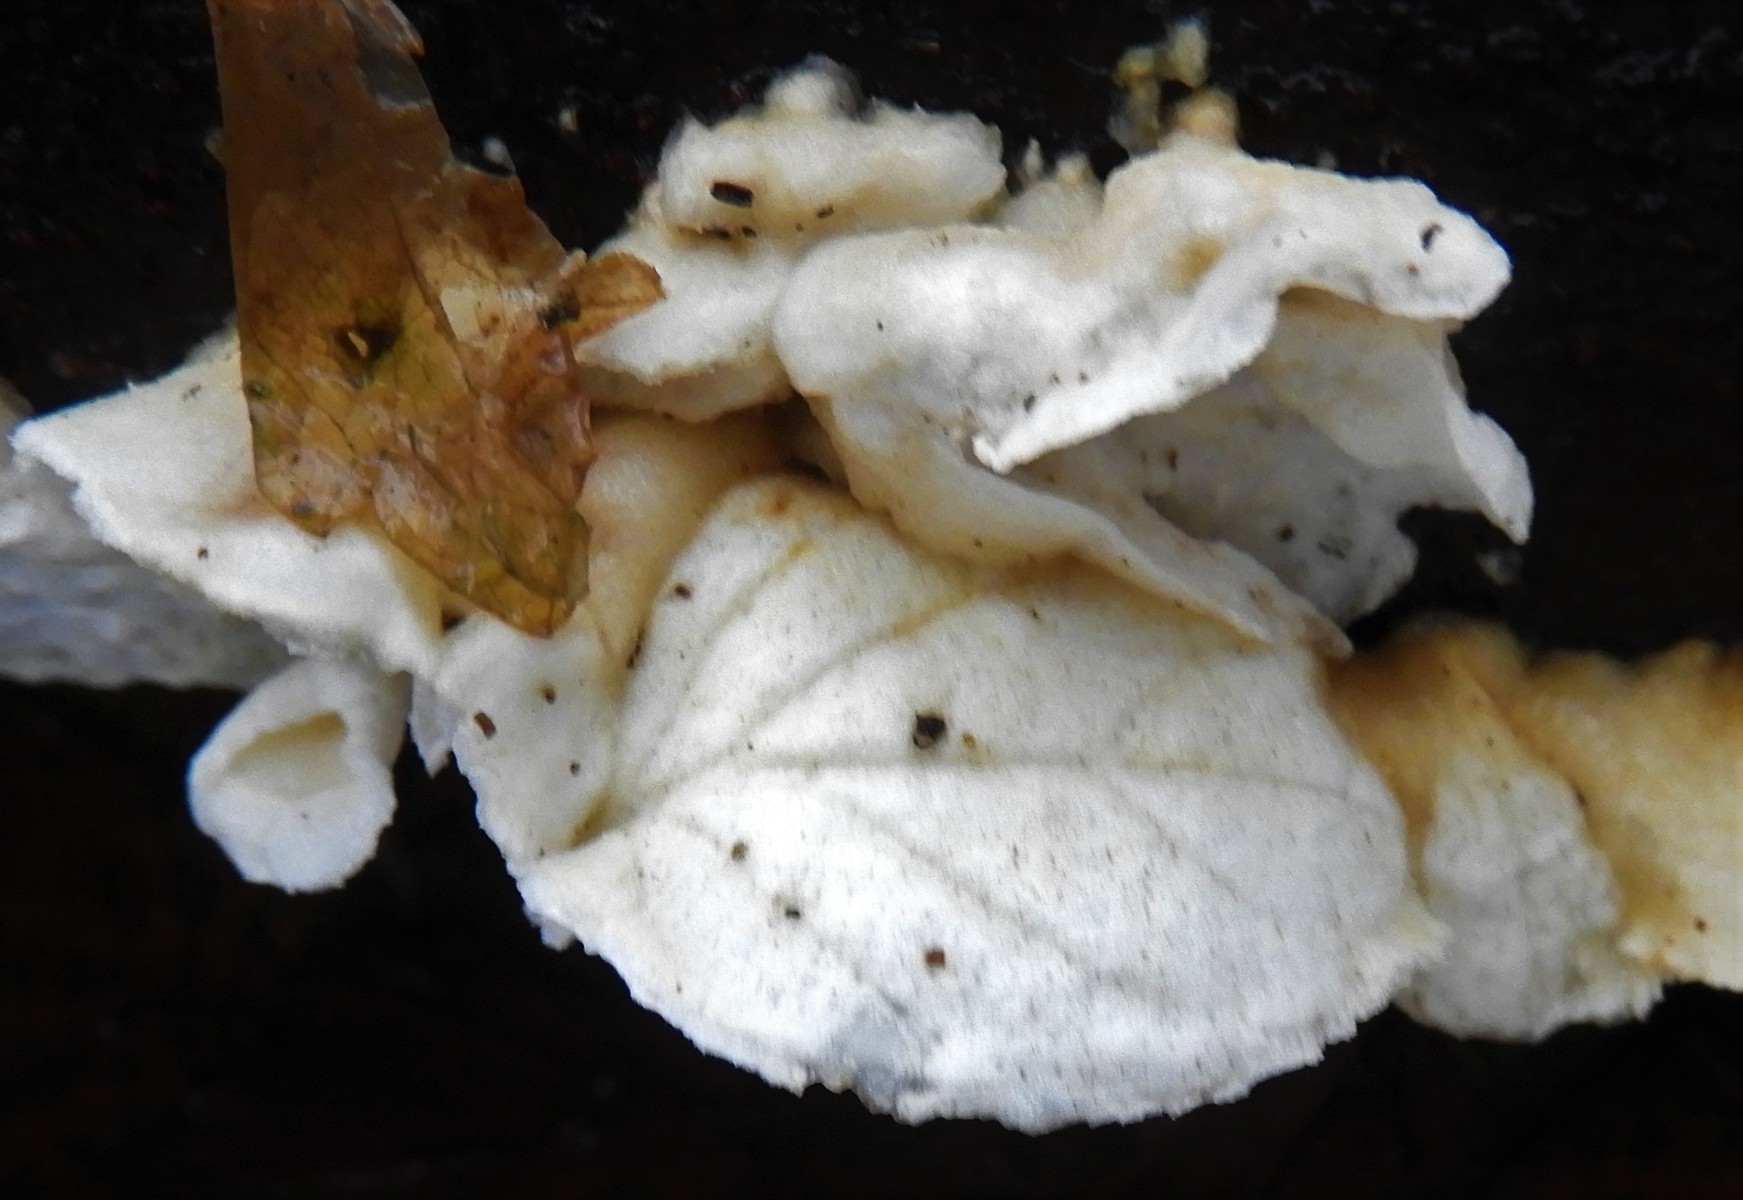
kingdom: Fungi
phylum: Basidiomycota
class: Agaricomycetes
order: Polyporales
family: Irpicaceae
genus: Byssomerulius
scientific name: Byssomerulius corium
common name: læder-åresvamp
